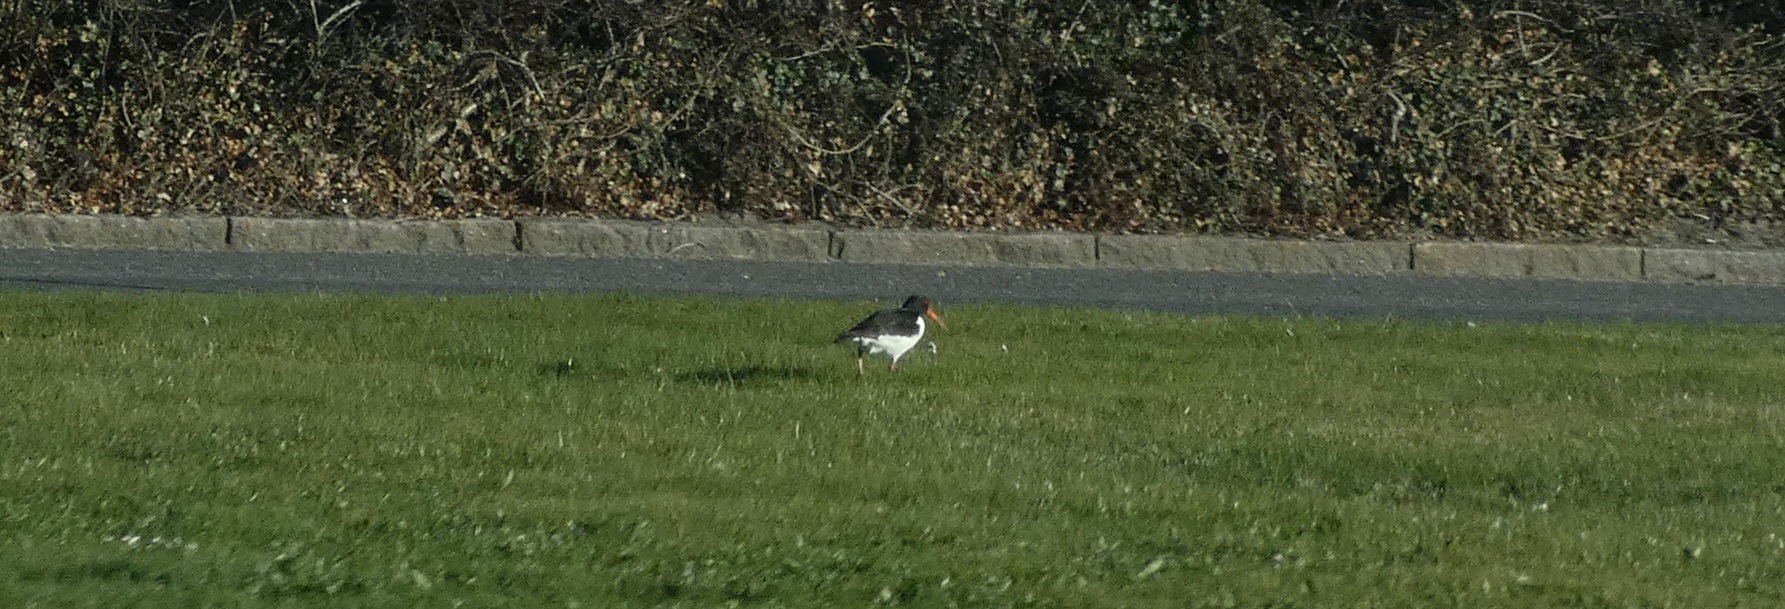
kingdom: Animalia
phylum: Chordata
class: Aves
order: Charadriiformes
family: Haematopodidae
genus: Haematopus
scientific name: Haematopus ostralegus
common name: Strandskade
